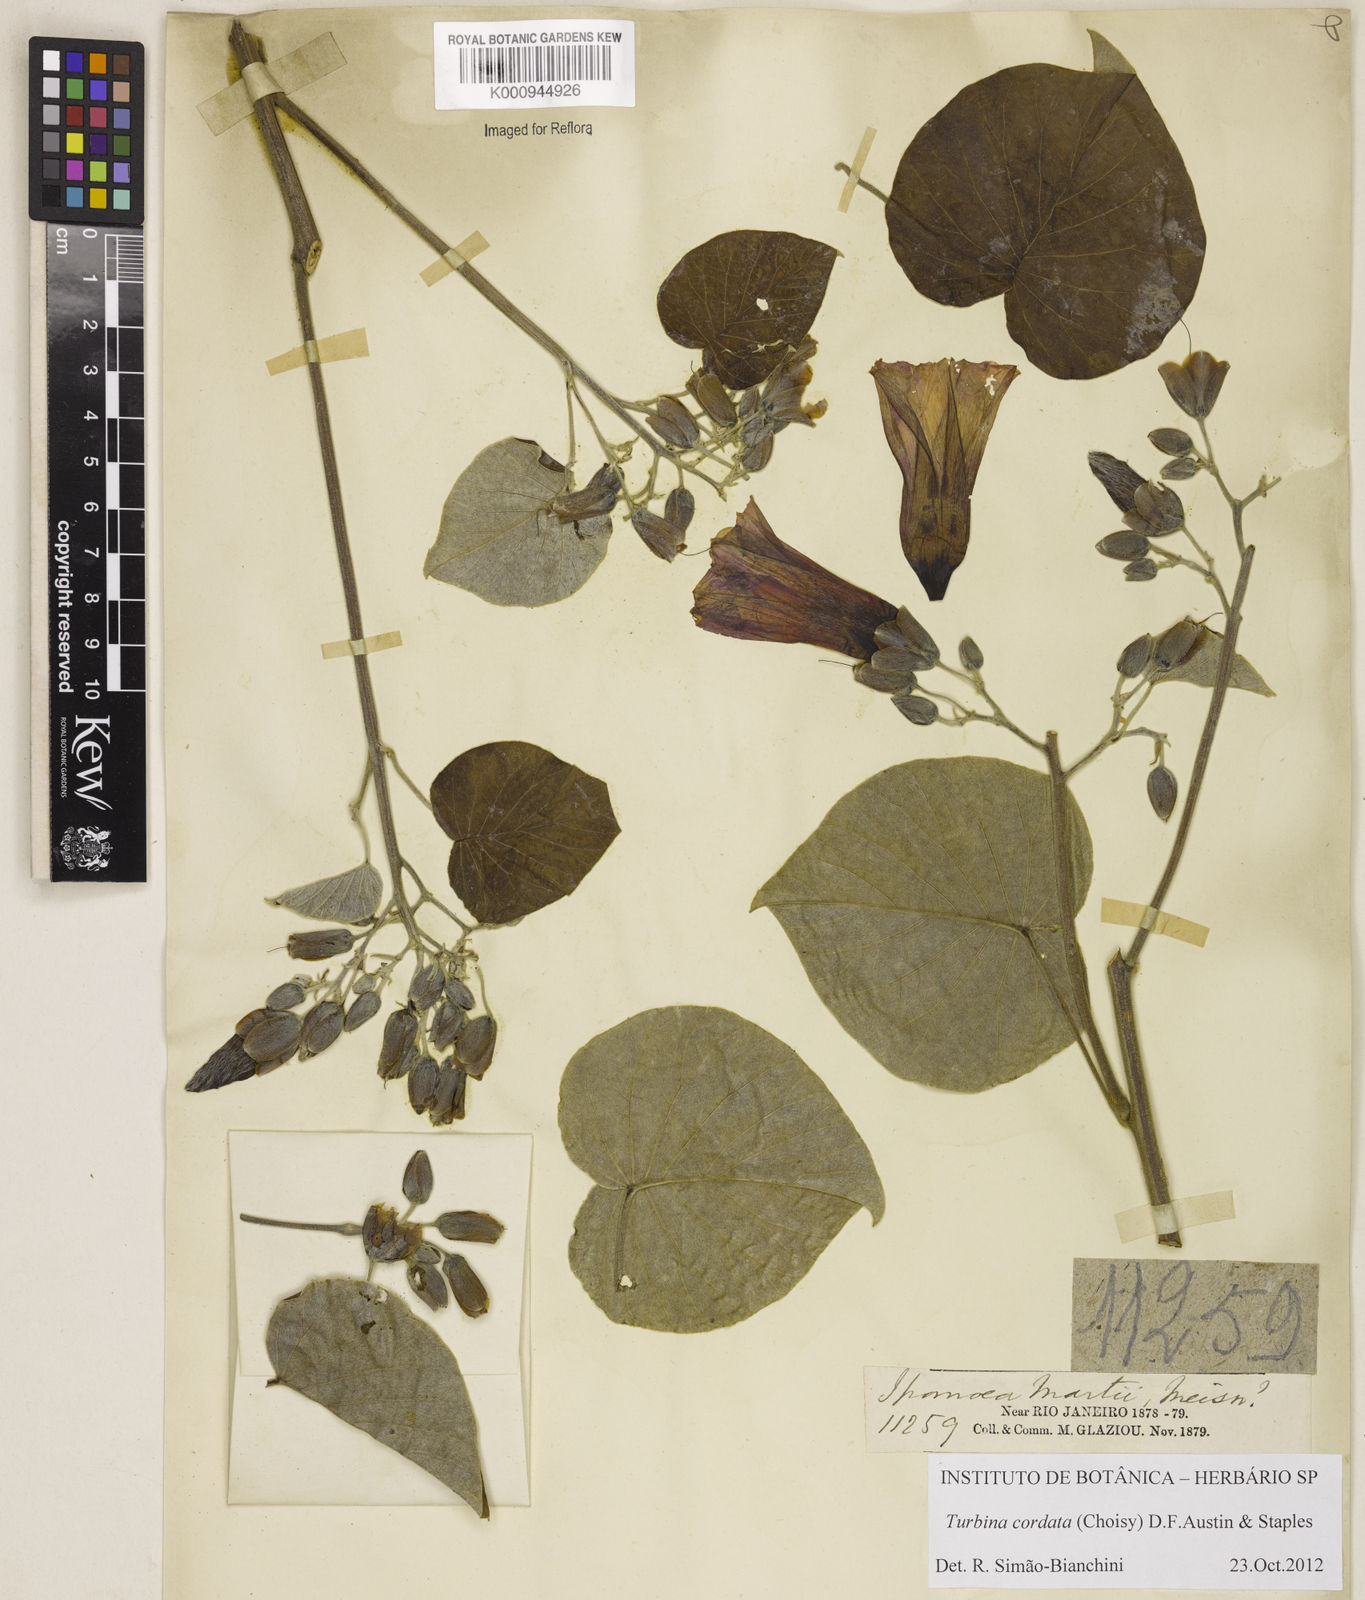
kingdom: Animalia
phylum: Mollusca
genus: Turbina
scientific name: Turbina
